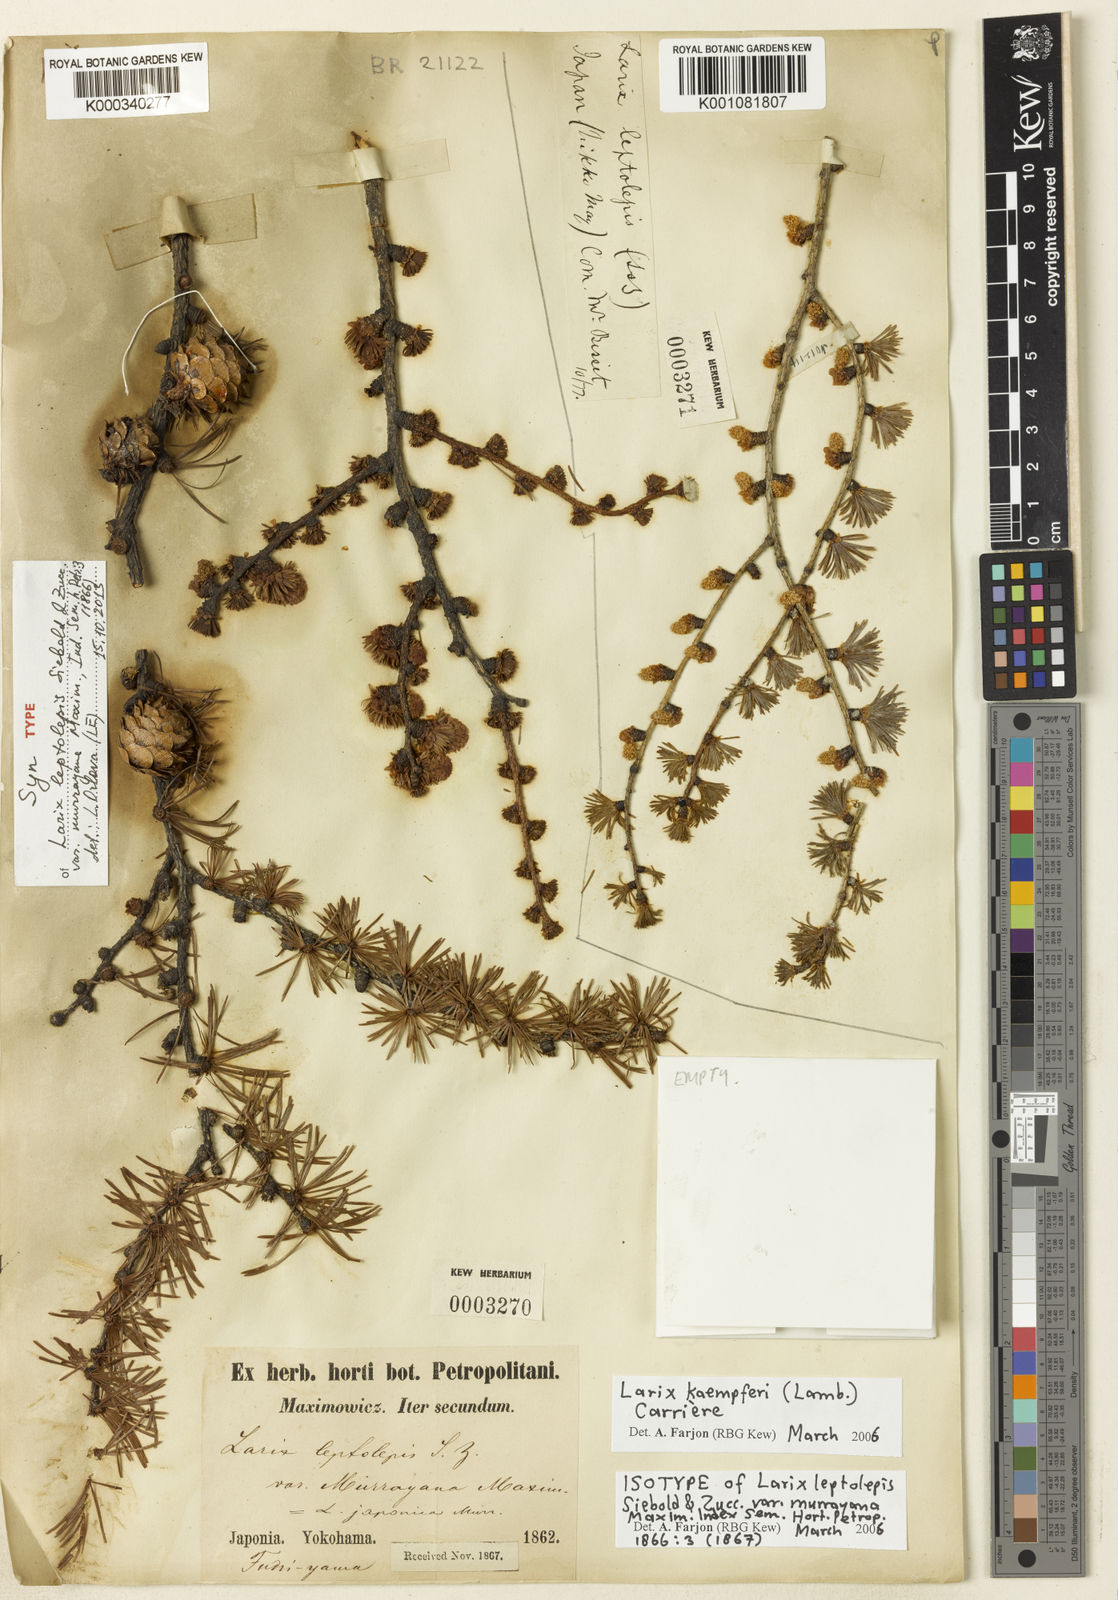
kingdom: Plantae
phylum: Tracheophyta
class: Pinopsida
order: Pinales
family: Pinaceae
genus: Larix
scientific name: Larix
